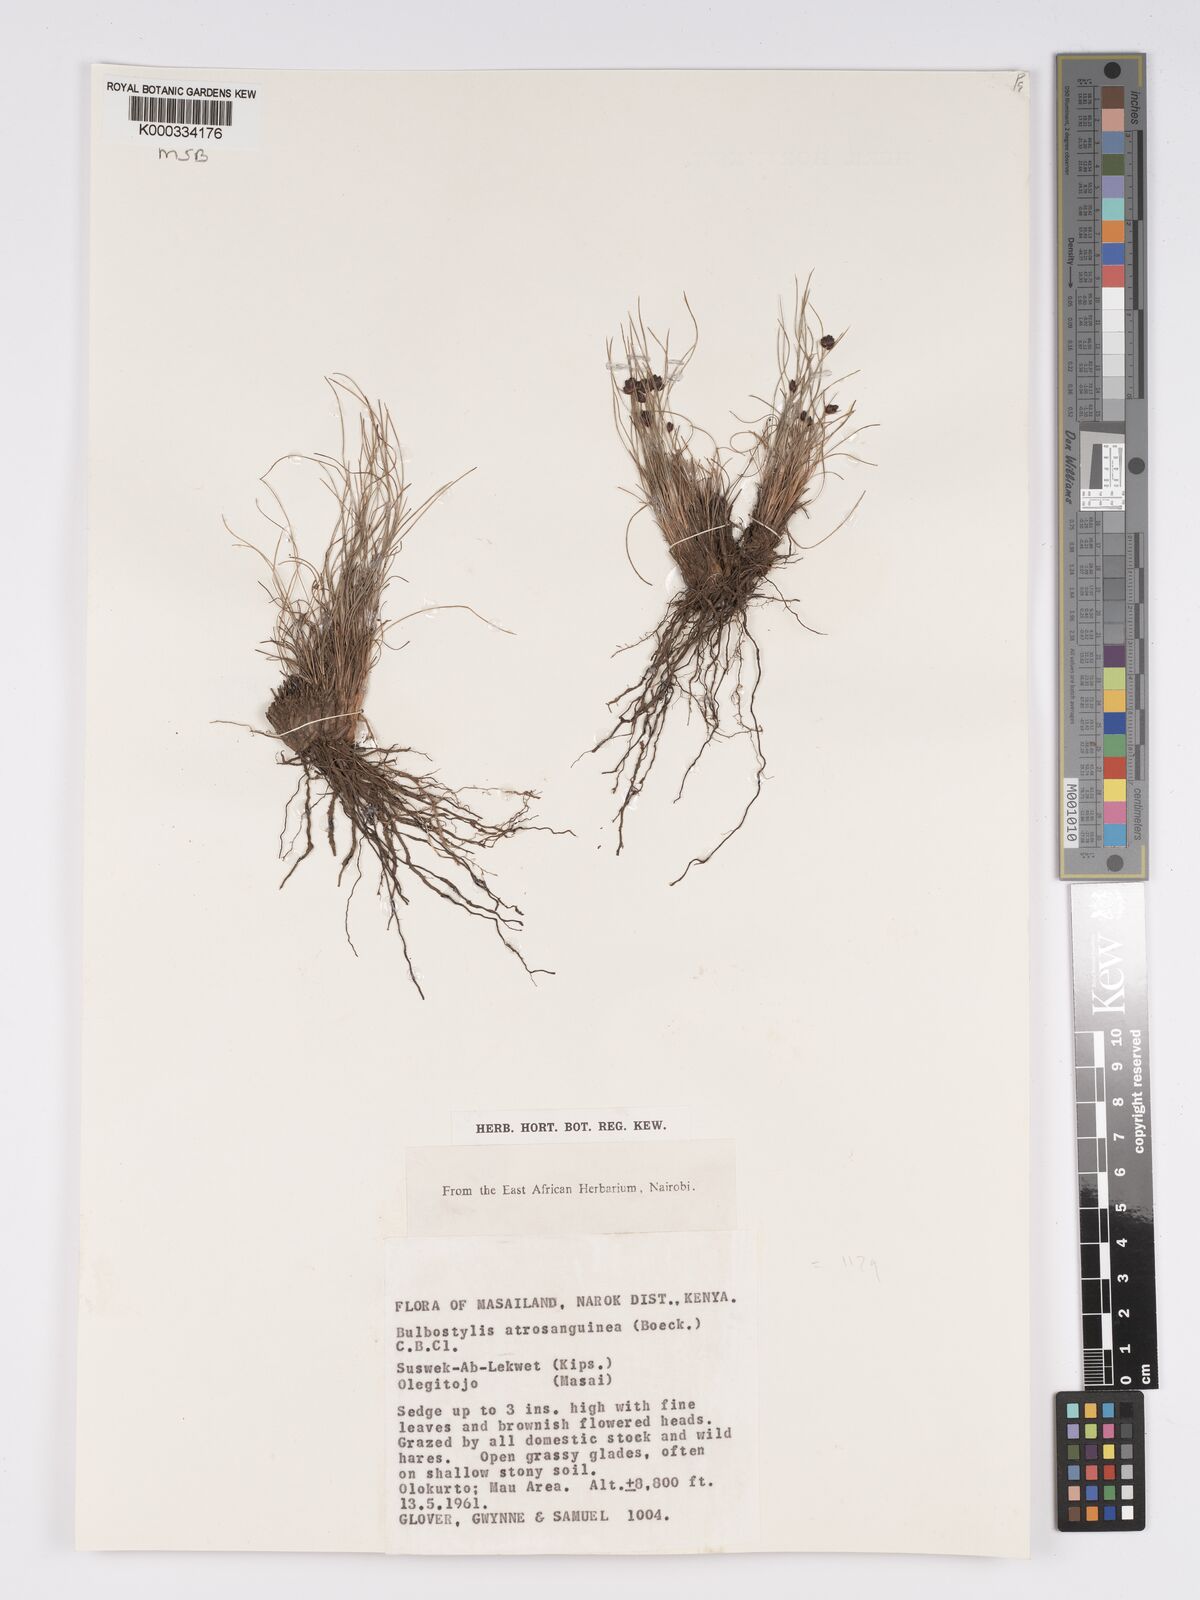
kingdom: Plantae
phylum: Tracheophyta
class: Liliopsida
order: Poales
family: Cyperaceae
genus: Bulbostylis
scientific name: Bulbostylis atrosanguinea
